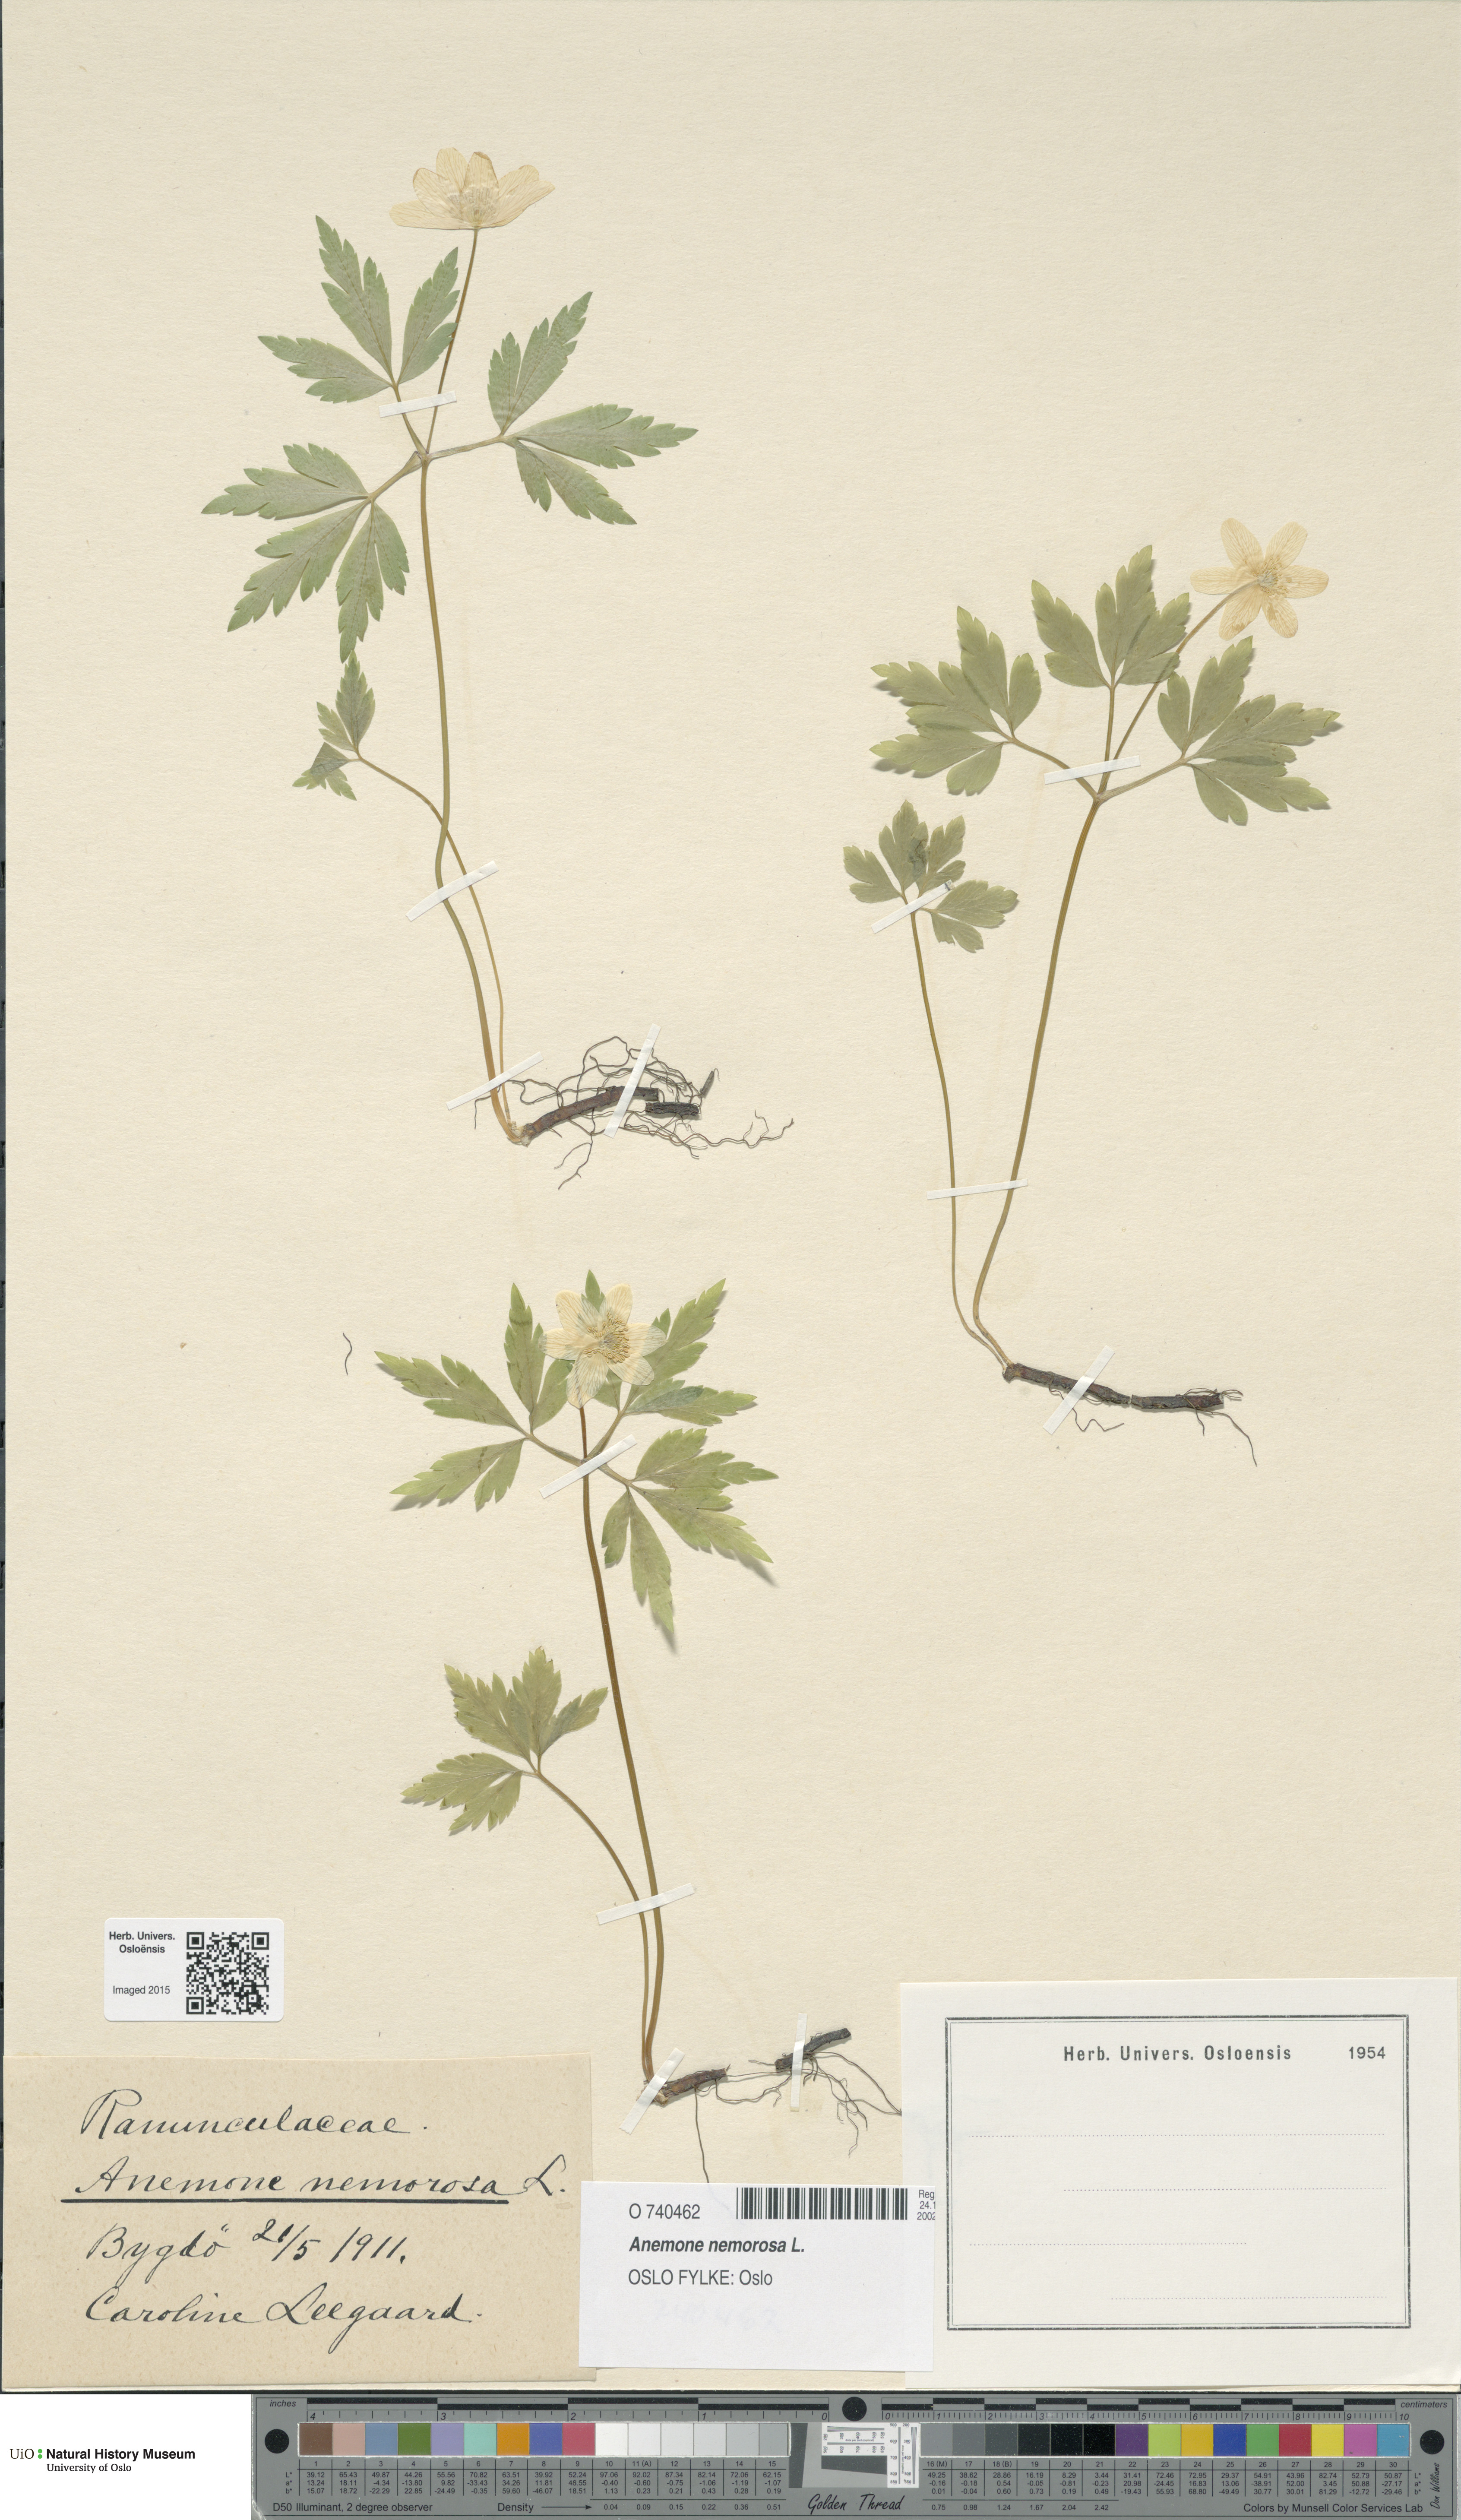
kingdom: Plantae
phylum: Tracheophyta
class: Magnoliopsida
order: Ranunculales
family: Ranunculaceae
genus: Anemone
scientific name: Anemone nemorosa
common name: Wood anemone
